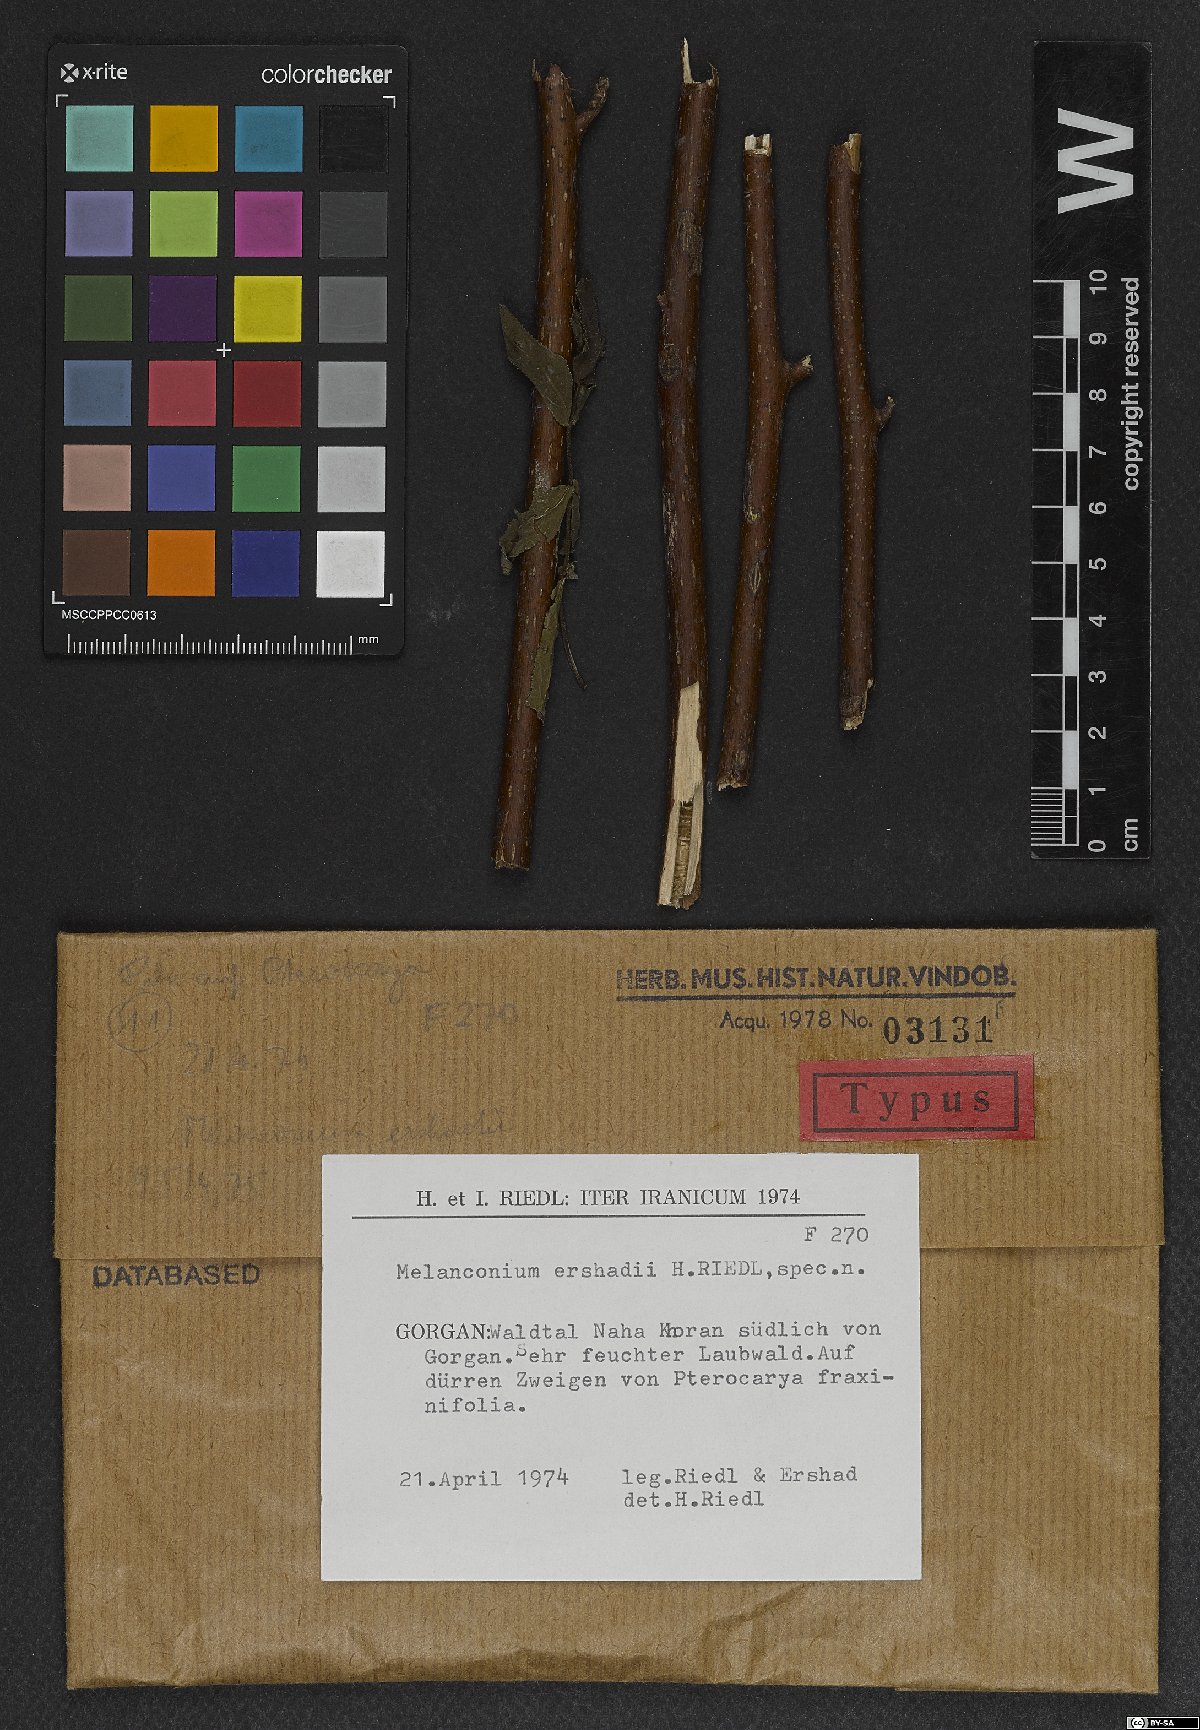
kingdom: Fungi
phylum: Ascomycota
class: Sordariomycetes
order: Diaporthales
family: Melanconidaceae
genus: Melanconium
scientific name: Melanconium ershadii
